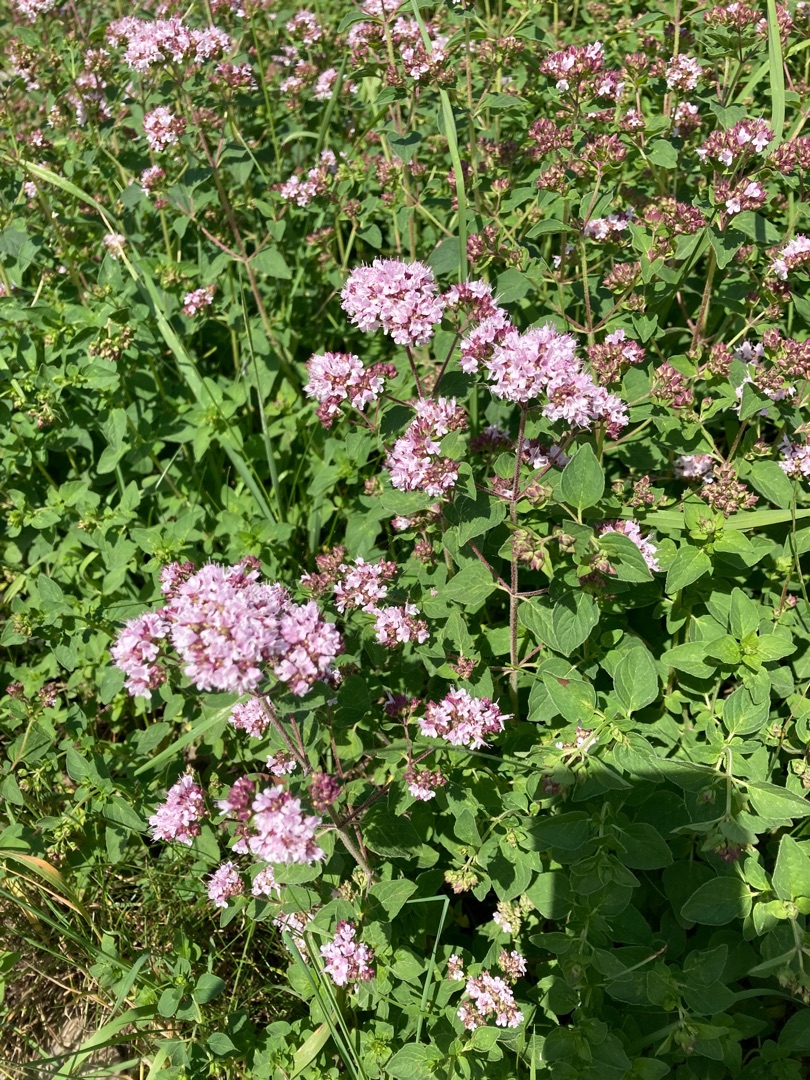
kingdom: Plantae
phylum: Tracheophyta
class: Magnoliopsida
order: Lamiales
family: Lamiaceae
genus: Origanum
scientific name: Origanum vulgare
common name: Merian
